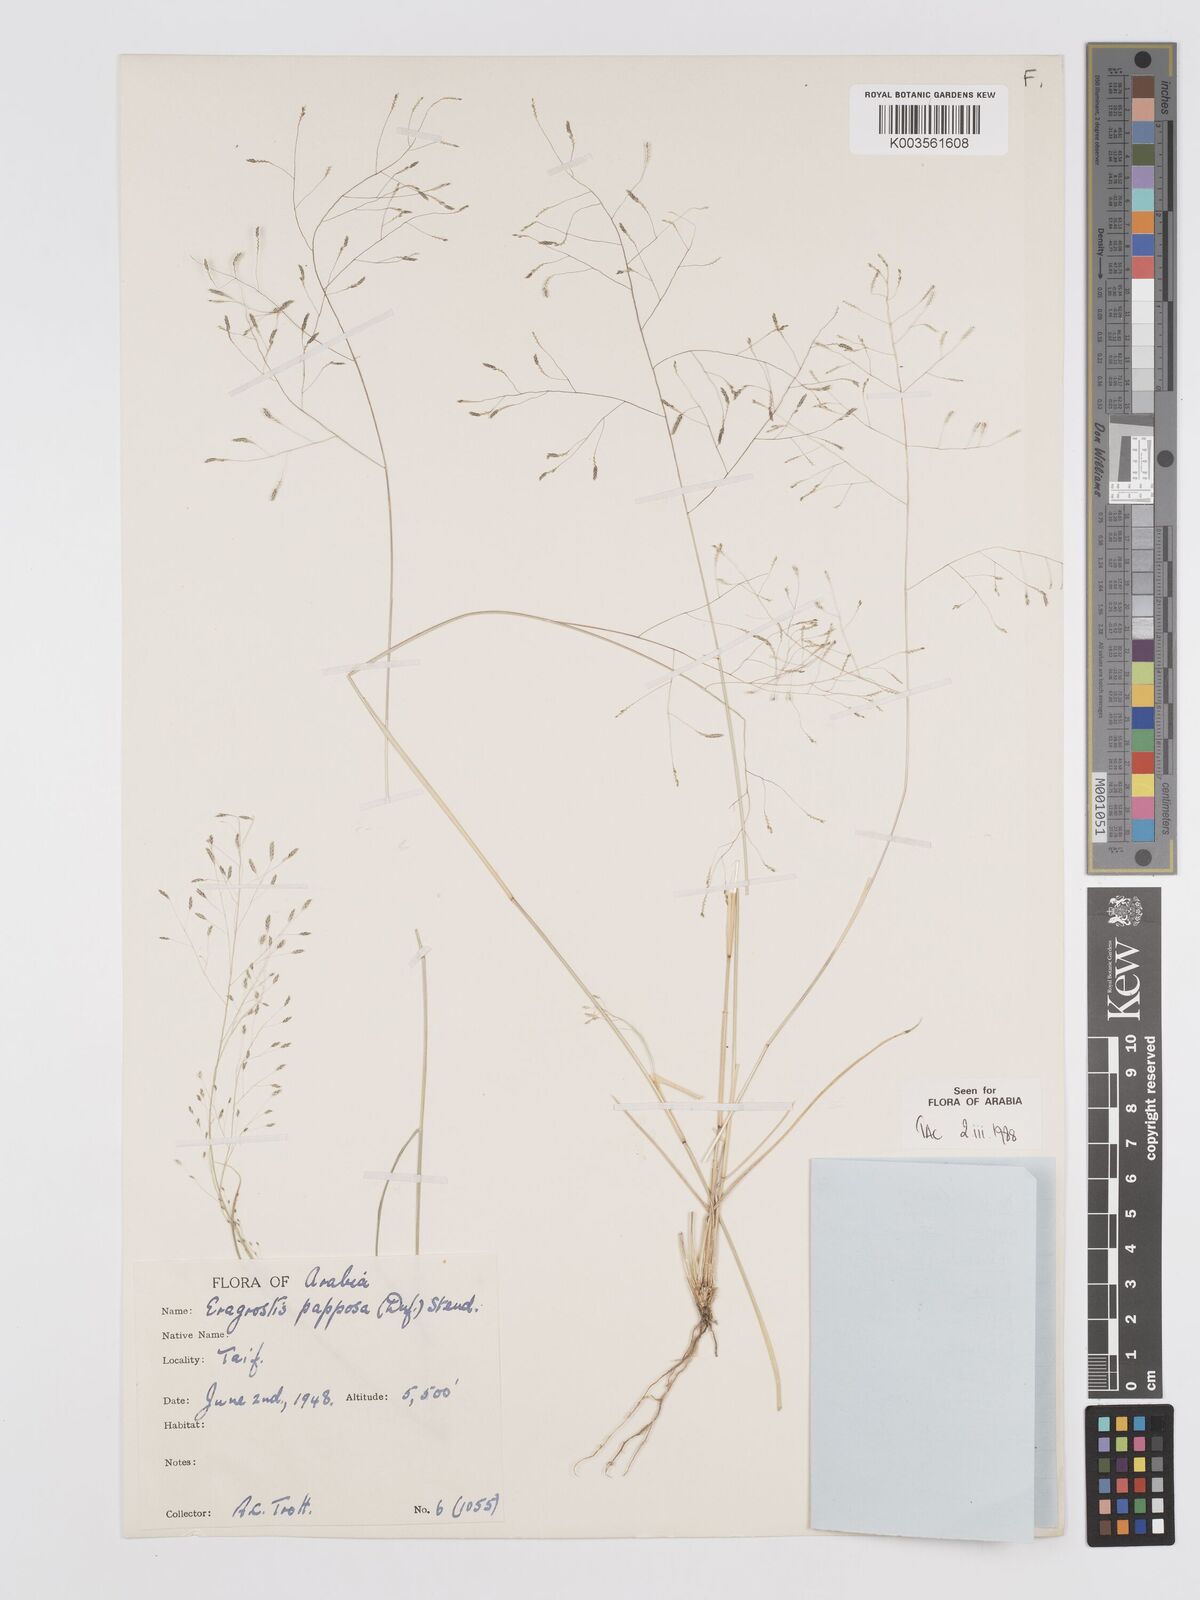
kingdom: Plantae
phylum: Tracheophyta
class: Liliopsida
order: Poales
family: Poaceae
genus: Eragrostis
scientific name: Eragrostis papposa
